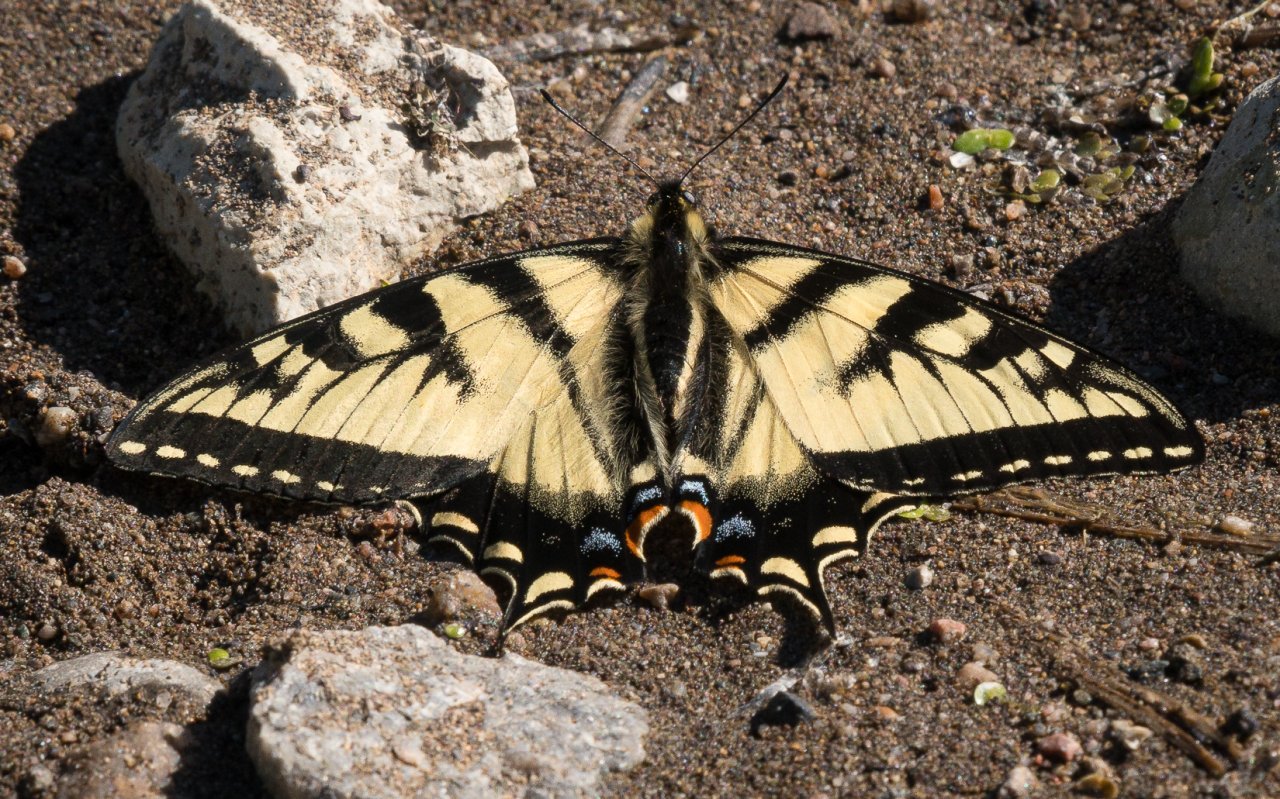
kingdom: Animalia
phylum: Arthropoda
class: Insecta
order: Lepidoptera
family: Papilionidae
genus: Pterourus
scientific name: Pterourus canadensis
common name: Canadian Tiger Swallowtail
